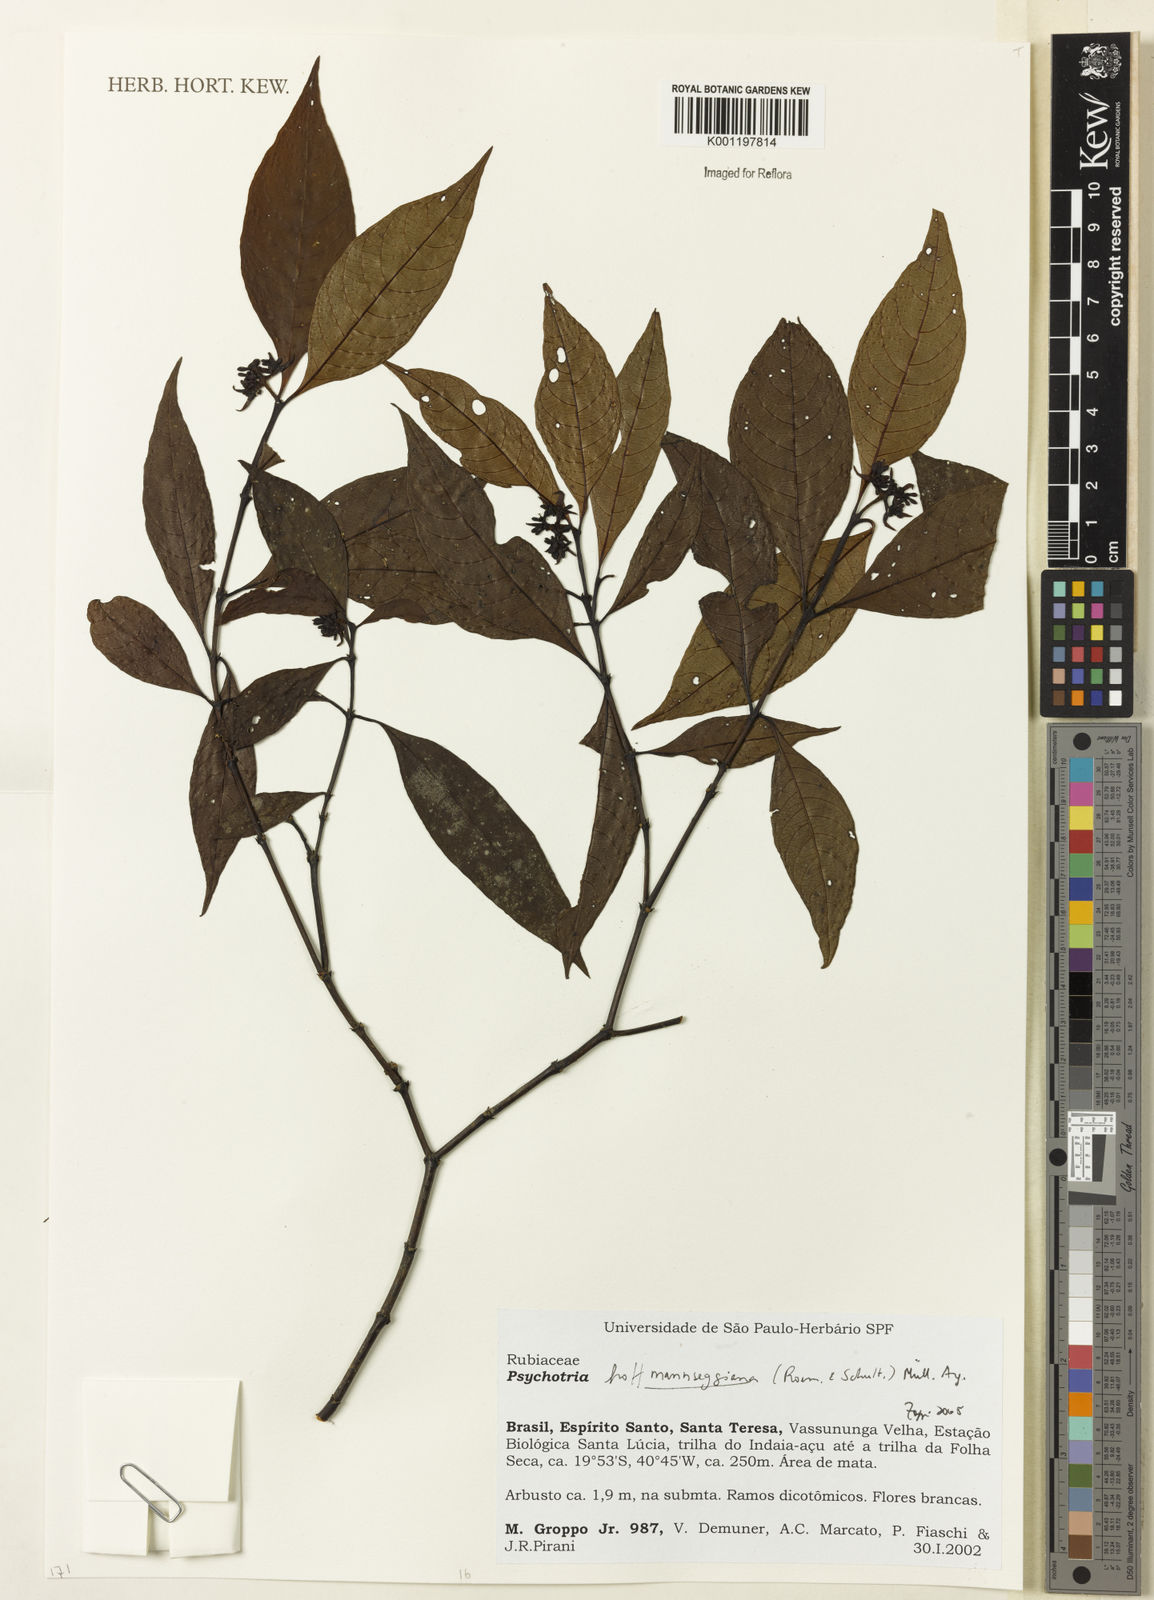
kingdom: Plantae
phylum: Tracheophyta
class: Magnoliopsida
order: Gentianales
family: Rubiaceae
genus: Psychotria
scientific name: Psychotria
